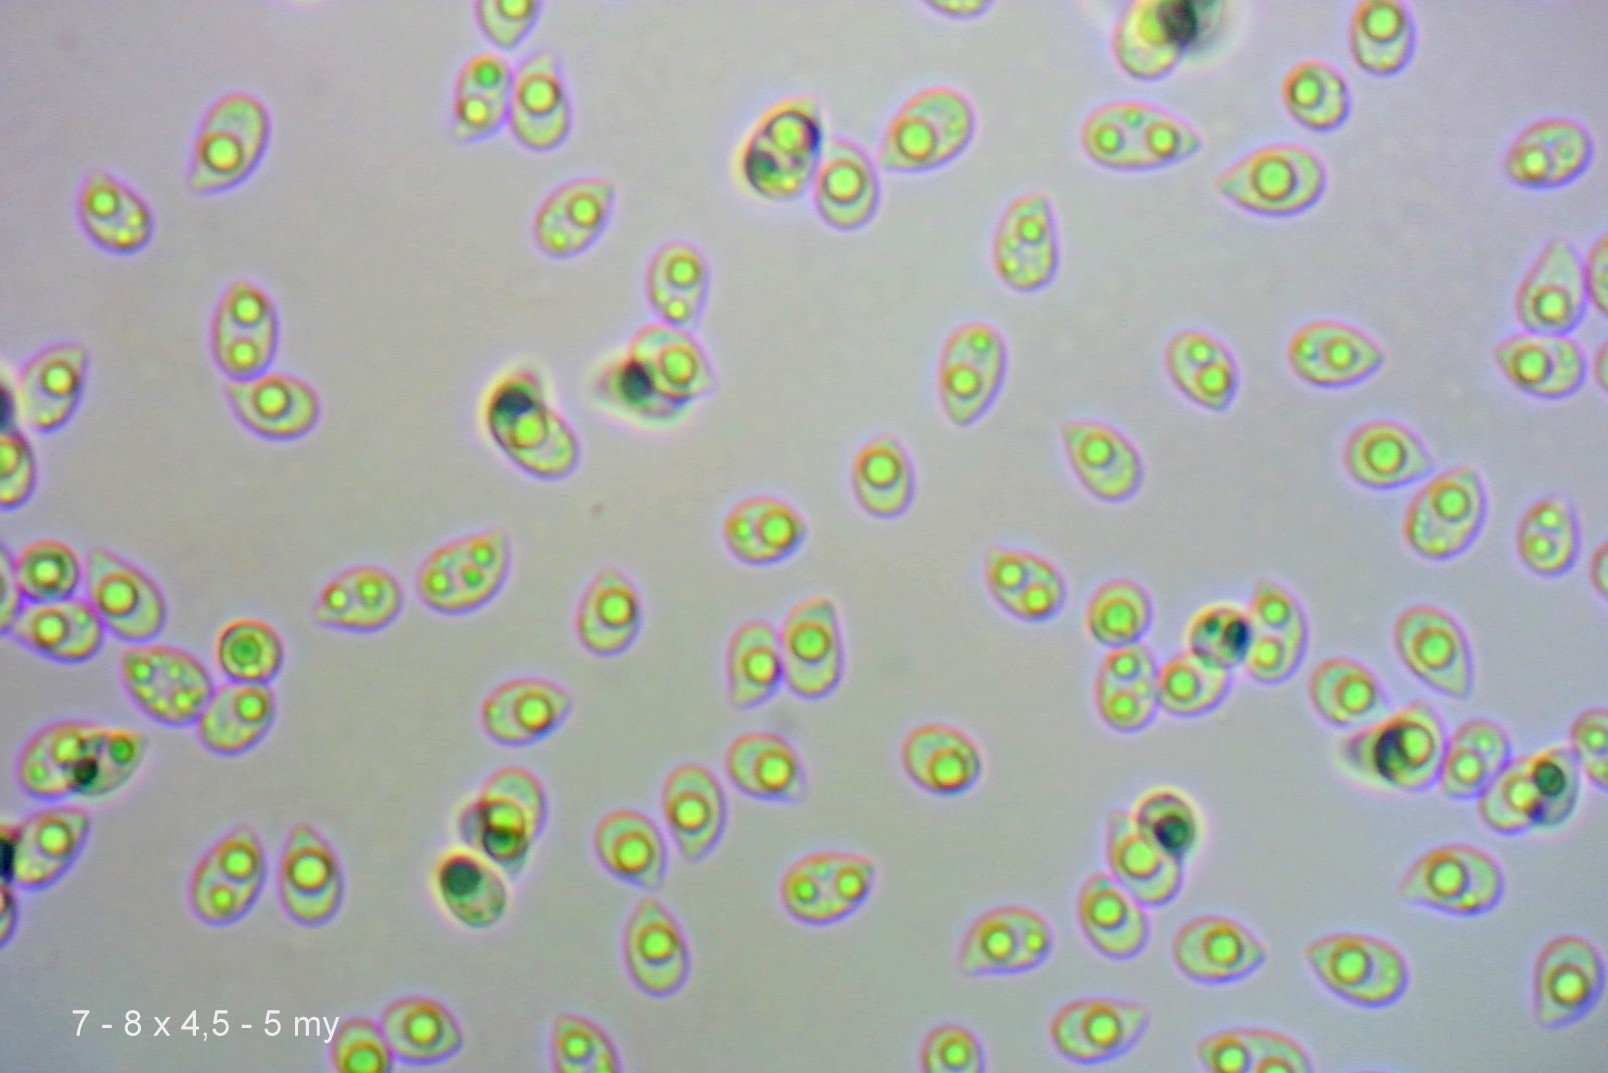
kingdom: Fungi
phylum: Basidiomycota
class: Agaricomycetes
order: Agaricales
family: Tricholomataceae
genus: Clitocybe
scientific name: Clitocybe costata
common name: brunstokket tragthat
